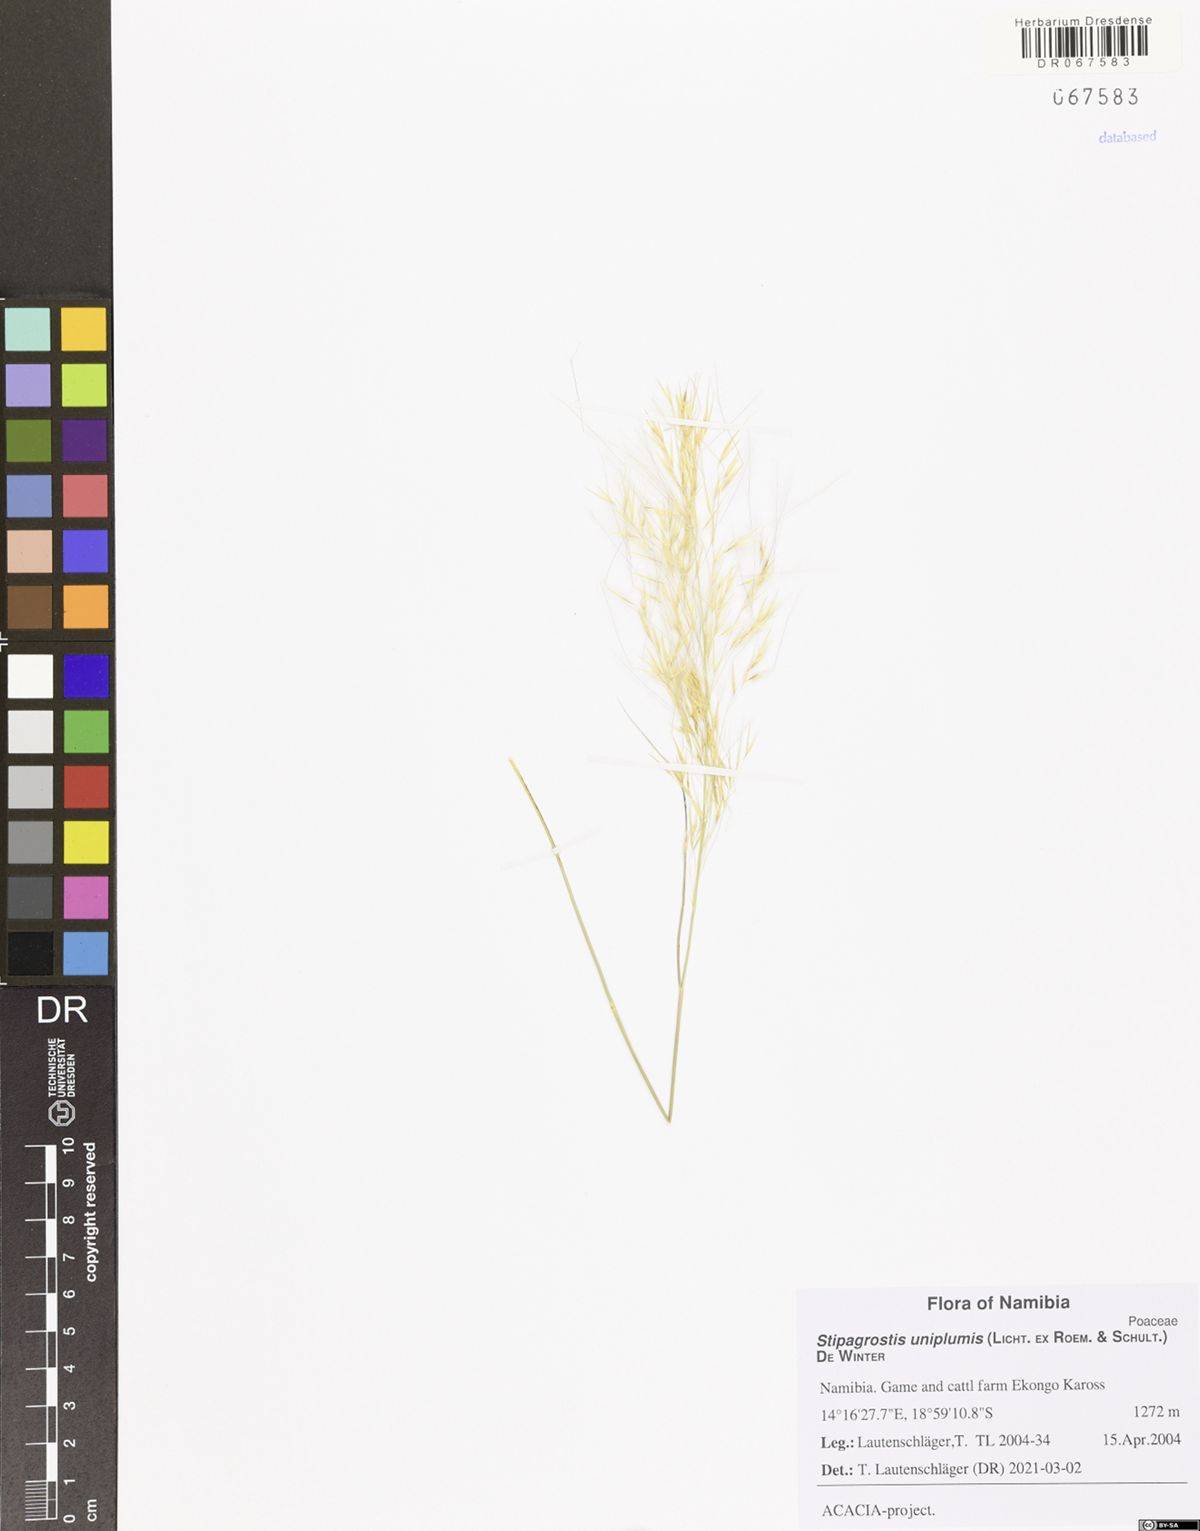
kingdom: Plantae
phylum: Tracheophyta
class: Liliopsida
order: Poales
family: Poaceae
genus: Stipagrostis
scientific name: Stipagrostis uniplumis
